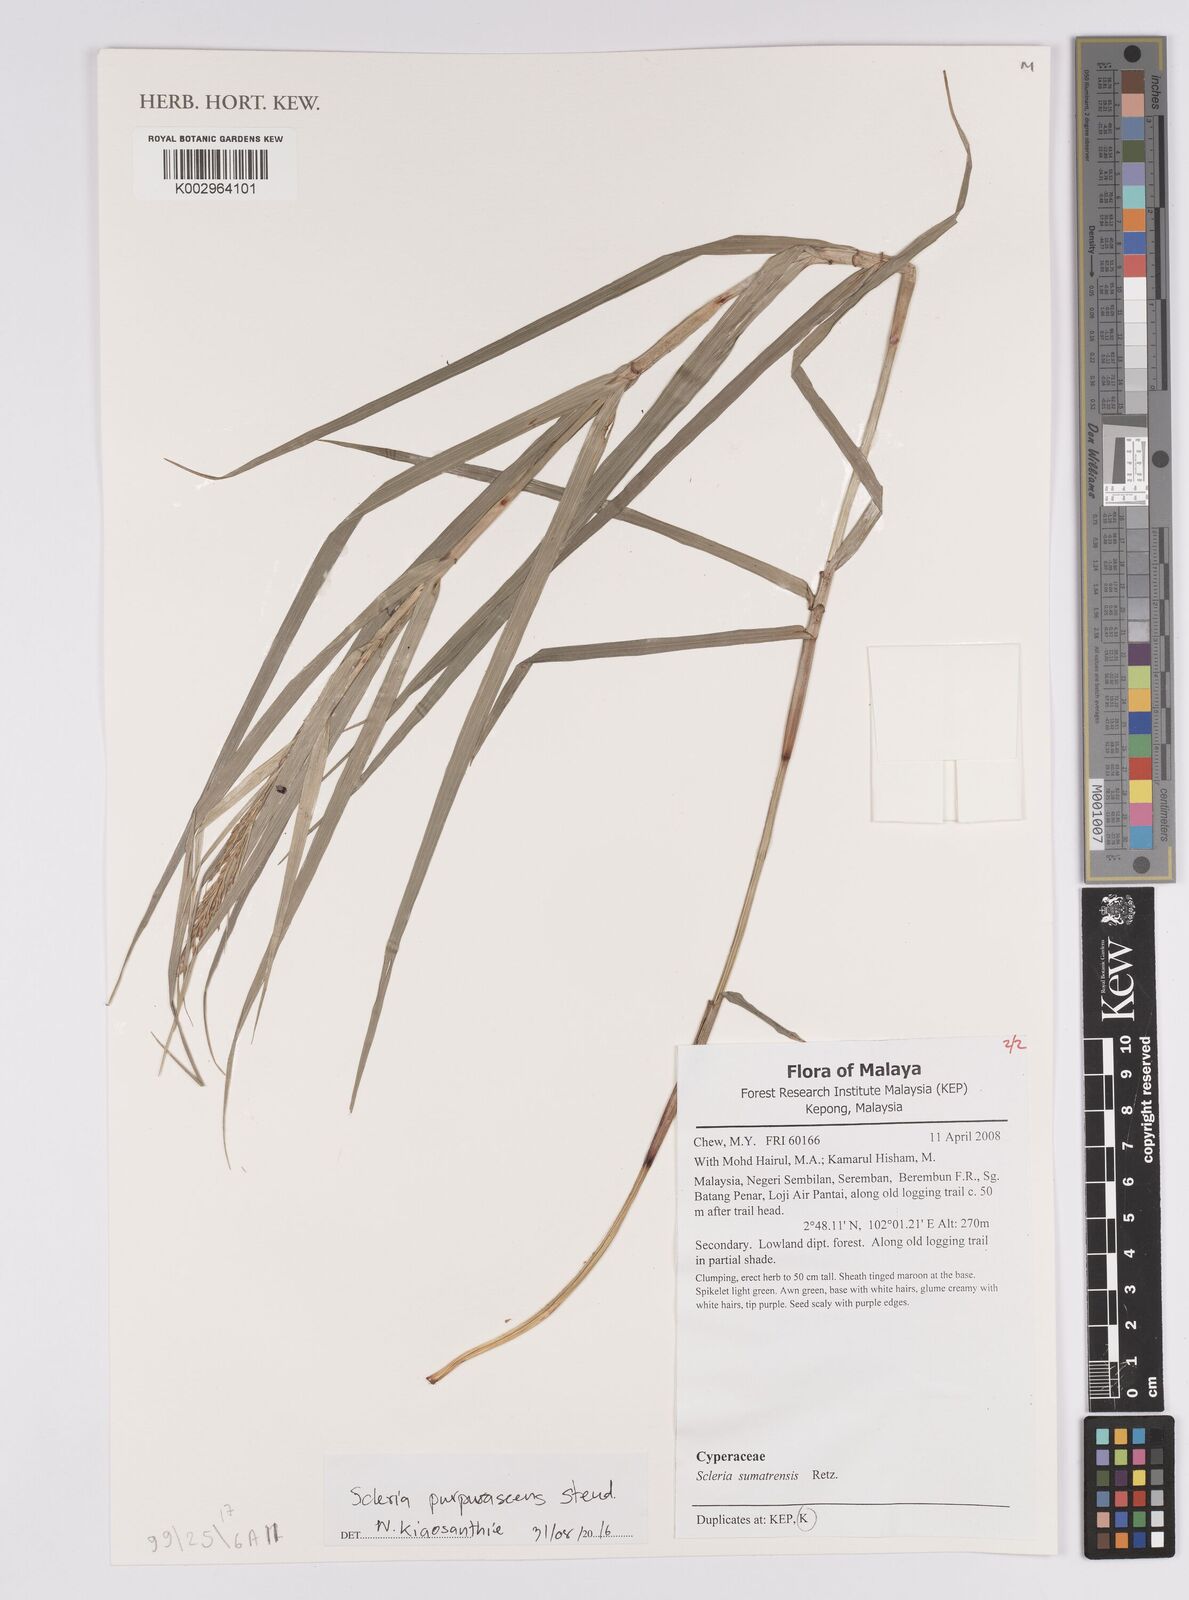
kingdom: Plantae
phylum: Tracheophyta
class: Liliopsida
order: Poales
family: Cyperaceae
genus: Scleria
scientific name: Scleria purpurascens
